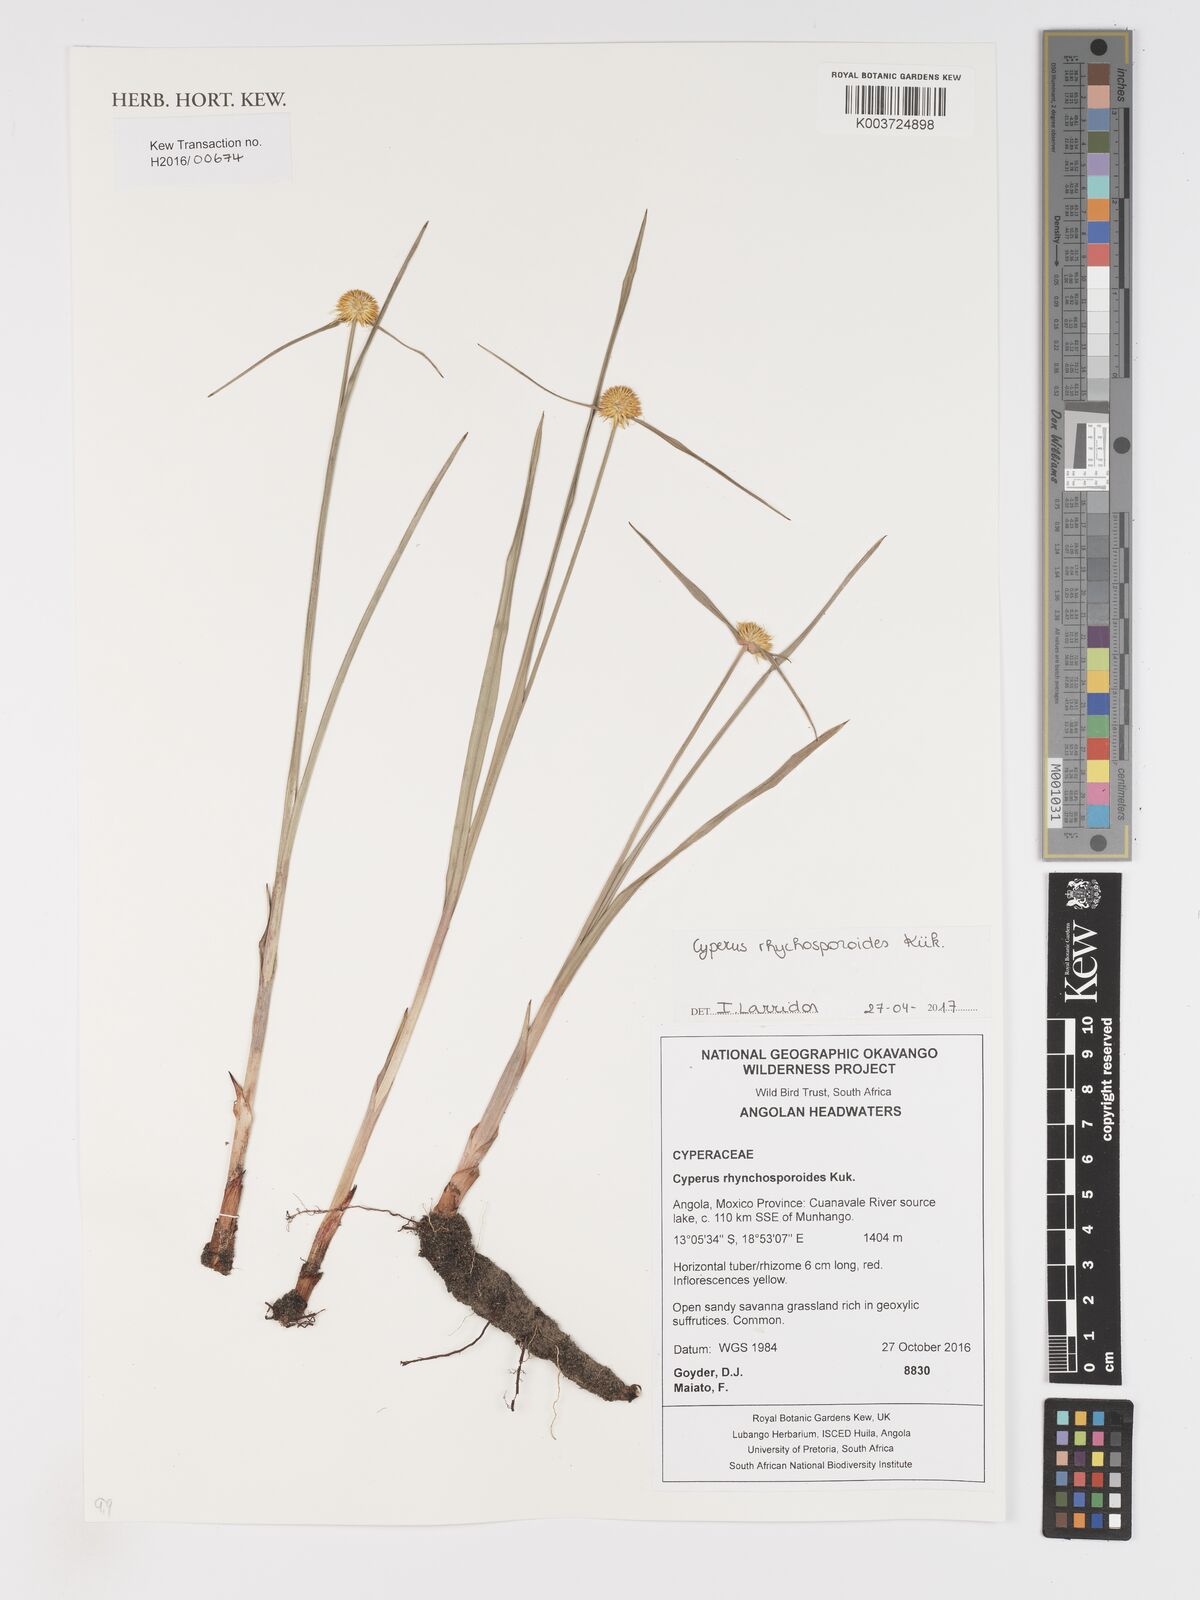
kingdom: Plantae
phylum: Tracheophyta
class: Liliopsida
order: Poales
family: Cyperaceae
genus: Cyperus
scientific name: Cyperus rhynchosporoides
